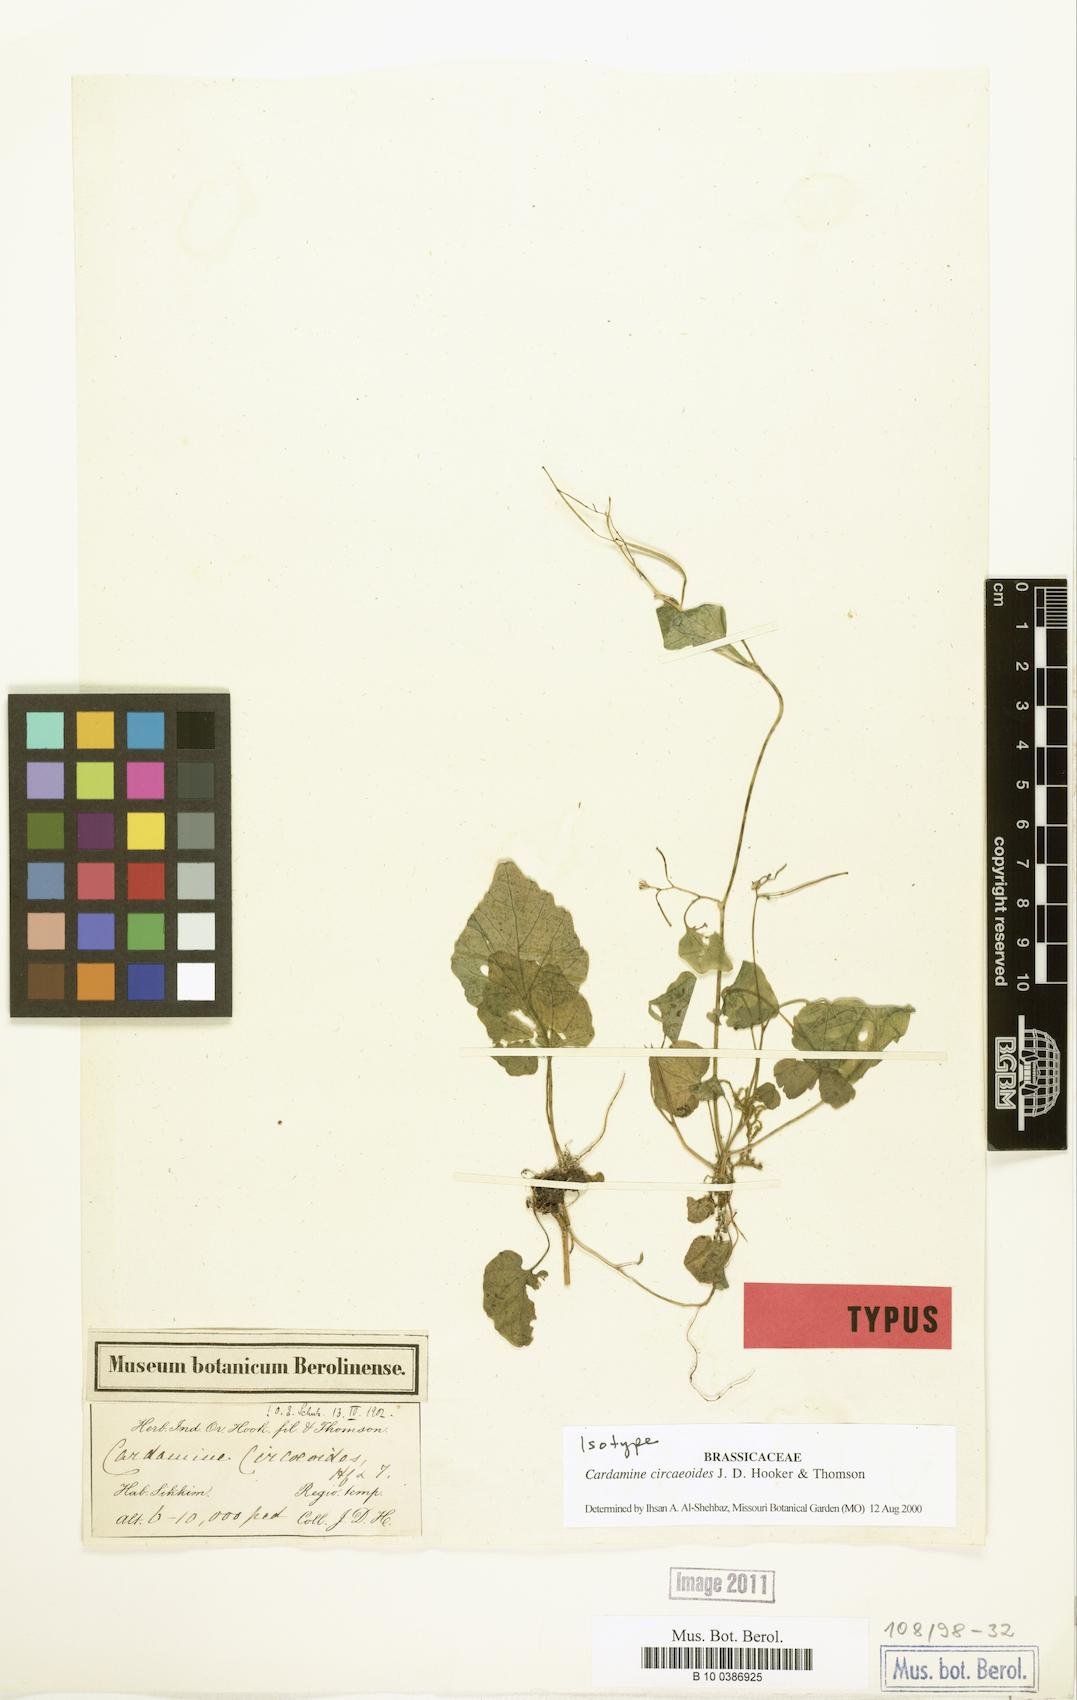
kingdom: Plantae
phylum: Tracheophyta
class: Magnoliopsida
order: Brassicales
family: Brassicaceae
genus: Cardamine
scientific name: Cardamine circaeoides
